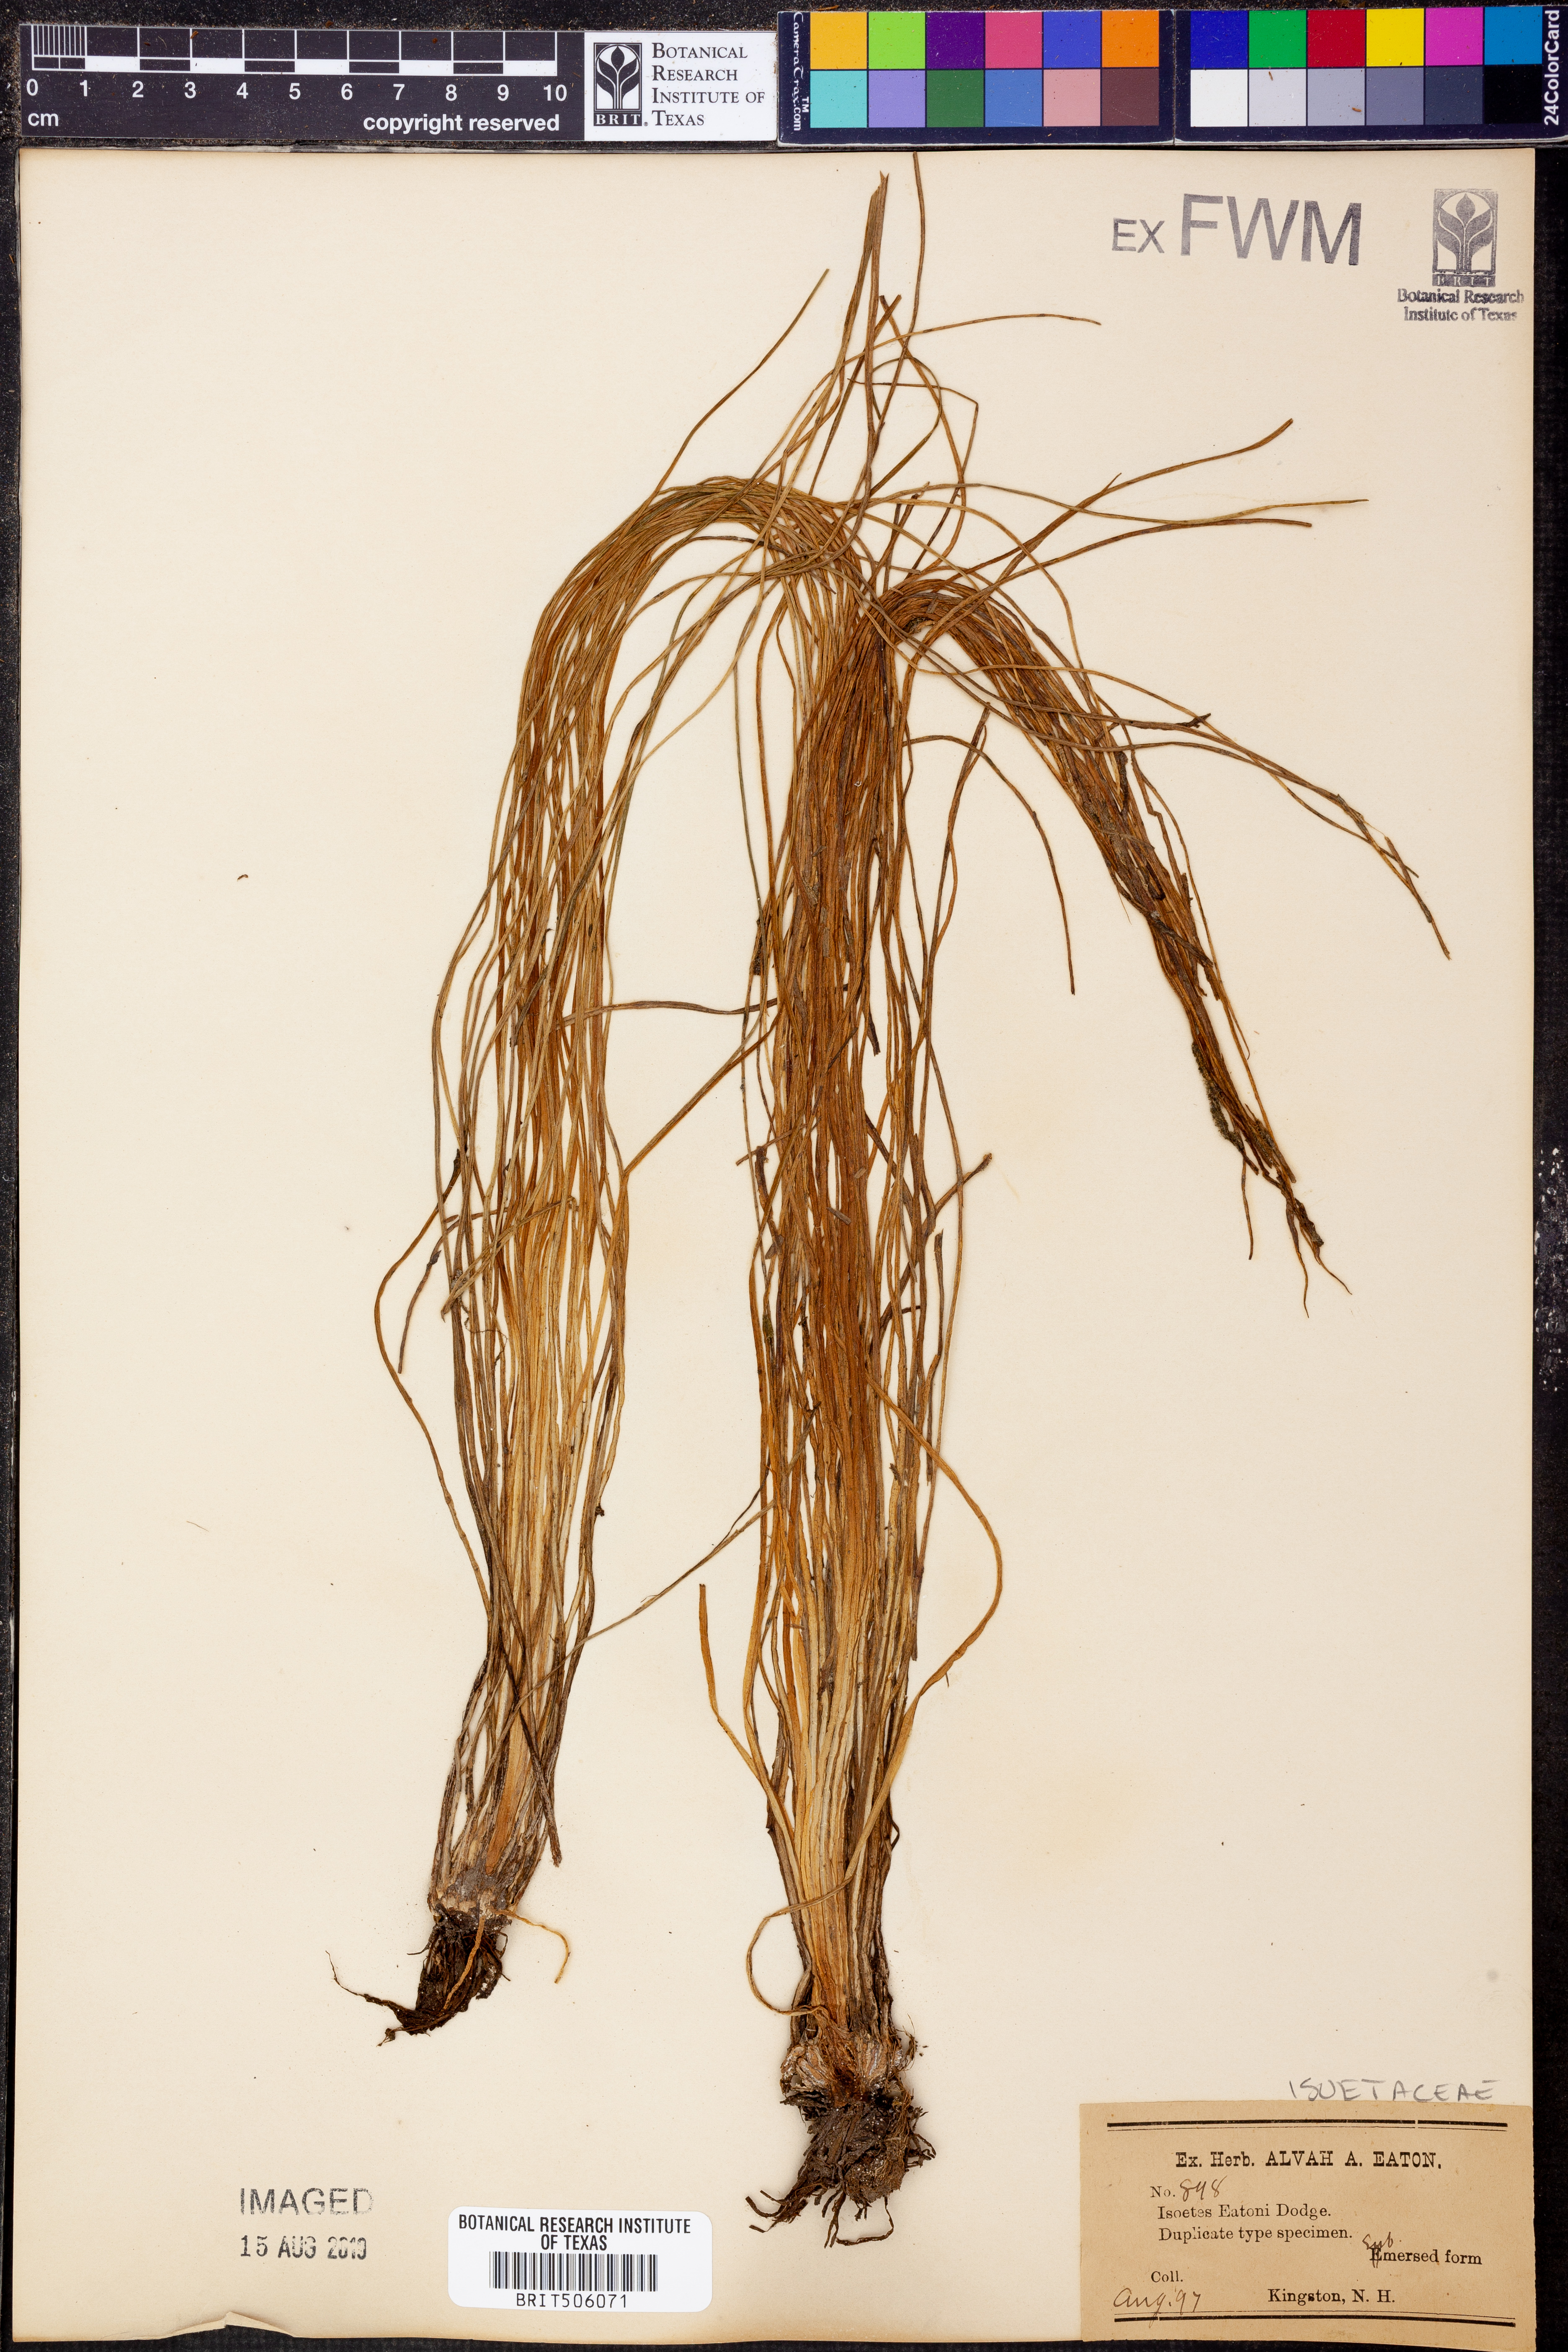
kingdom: Plantae
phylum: Tracheophyta
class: Lycopodiopsida
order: Isoetales
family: Isoetaceae
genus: Isoetes
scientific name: Isoetes eatonii
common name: Eaton's quillwort
